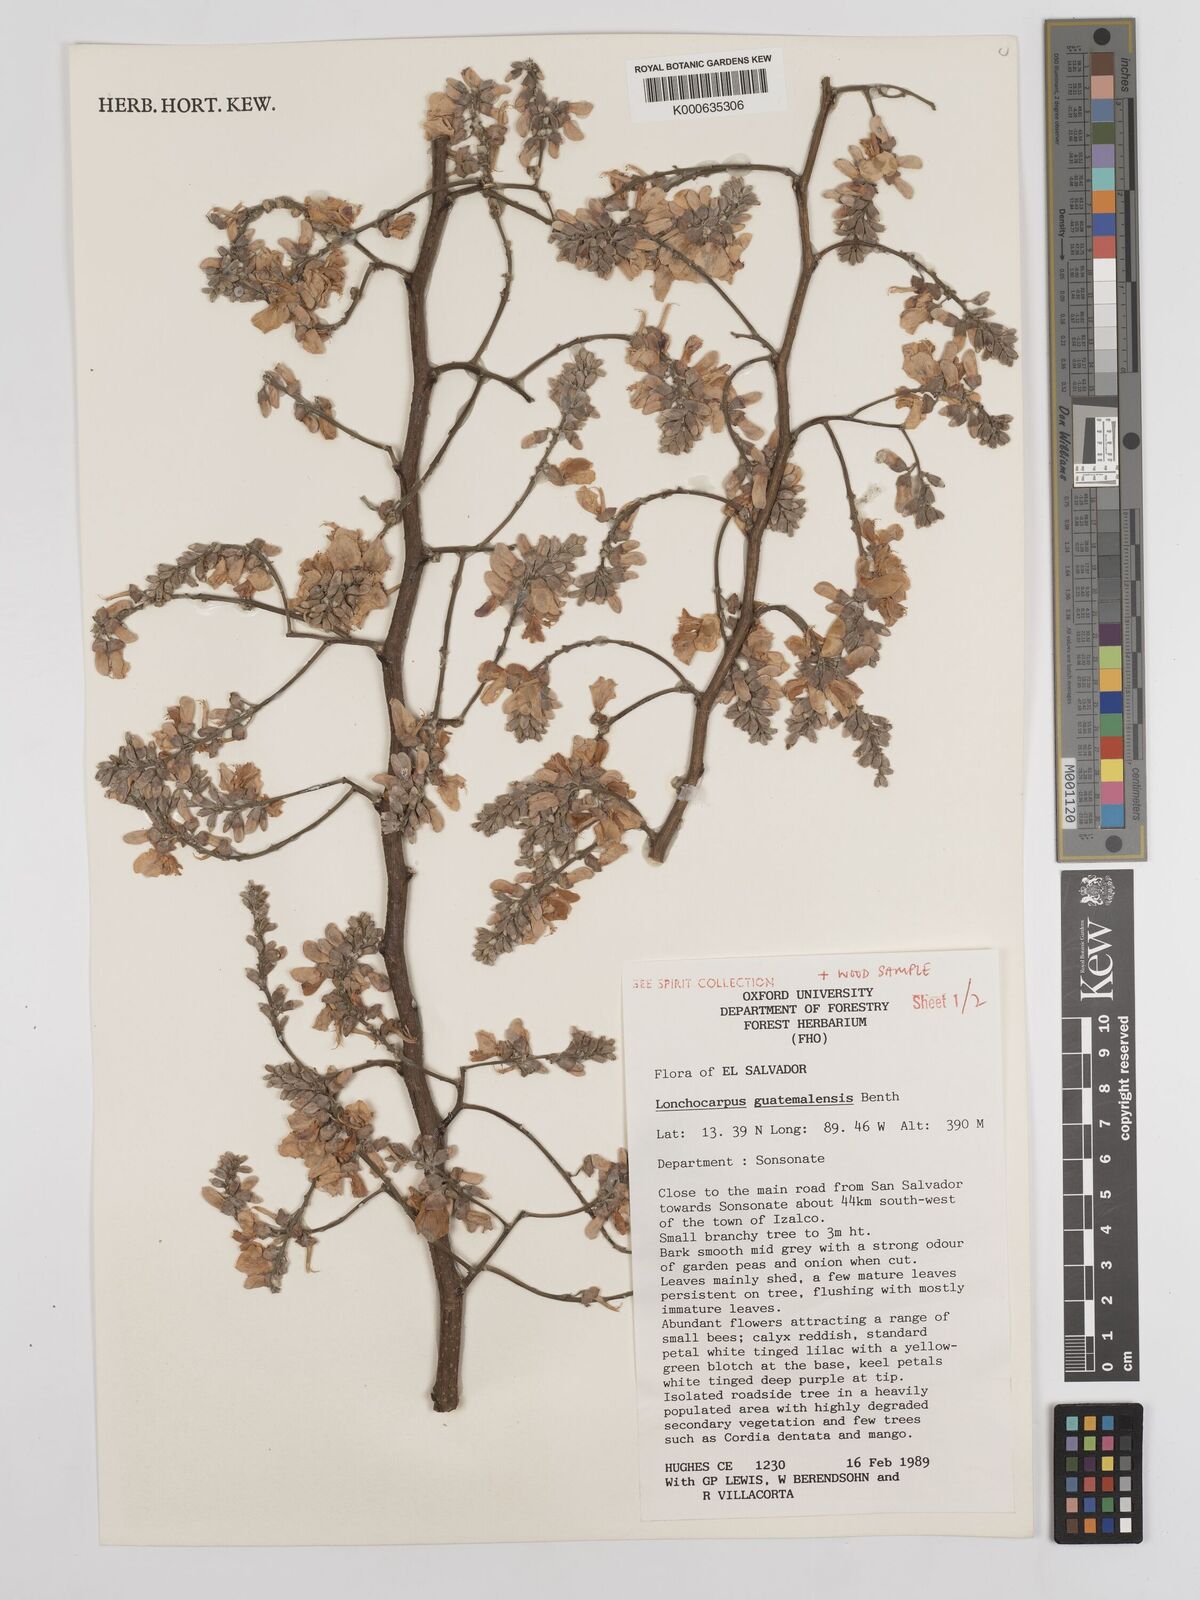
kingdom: Plantae
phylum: Tracheophyta
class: Magnoliopsida
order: Fabales
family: Fabaceae
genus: Lonchocarpus
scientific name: Lonchocarpus guatemalensis
